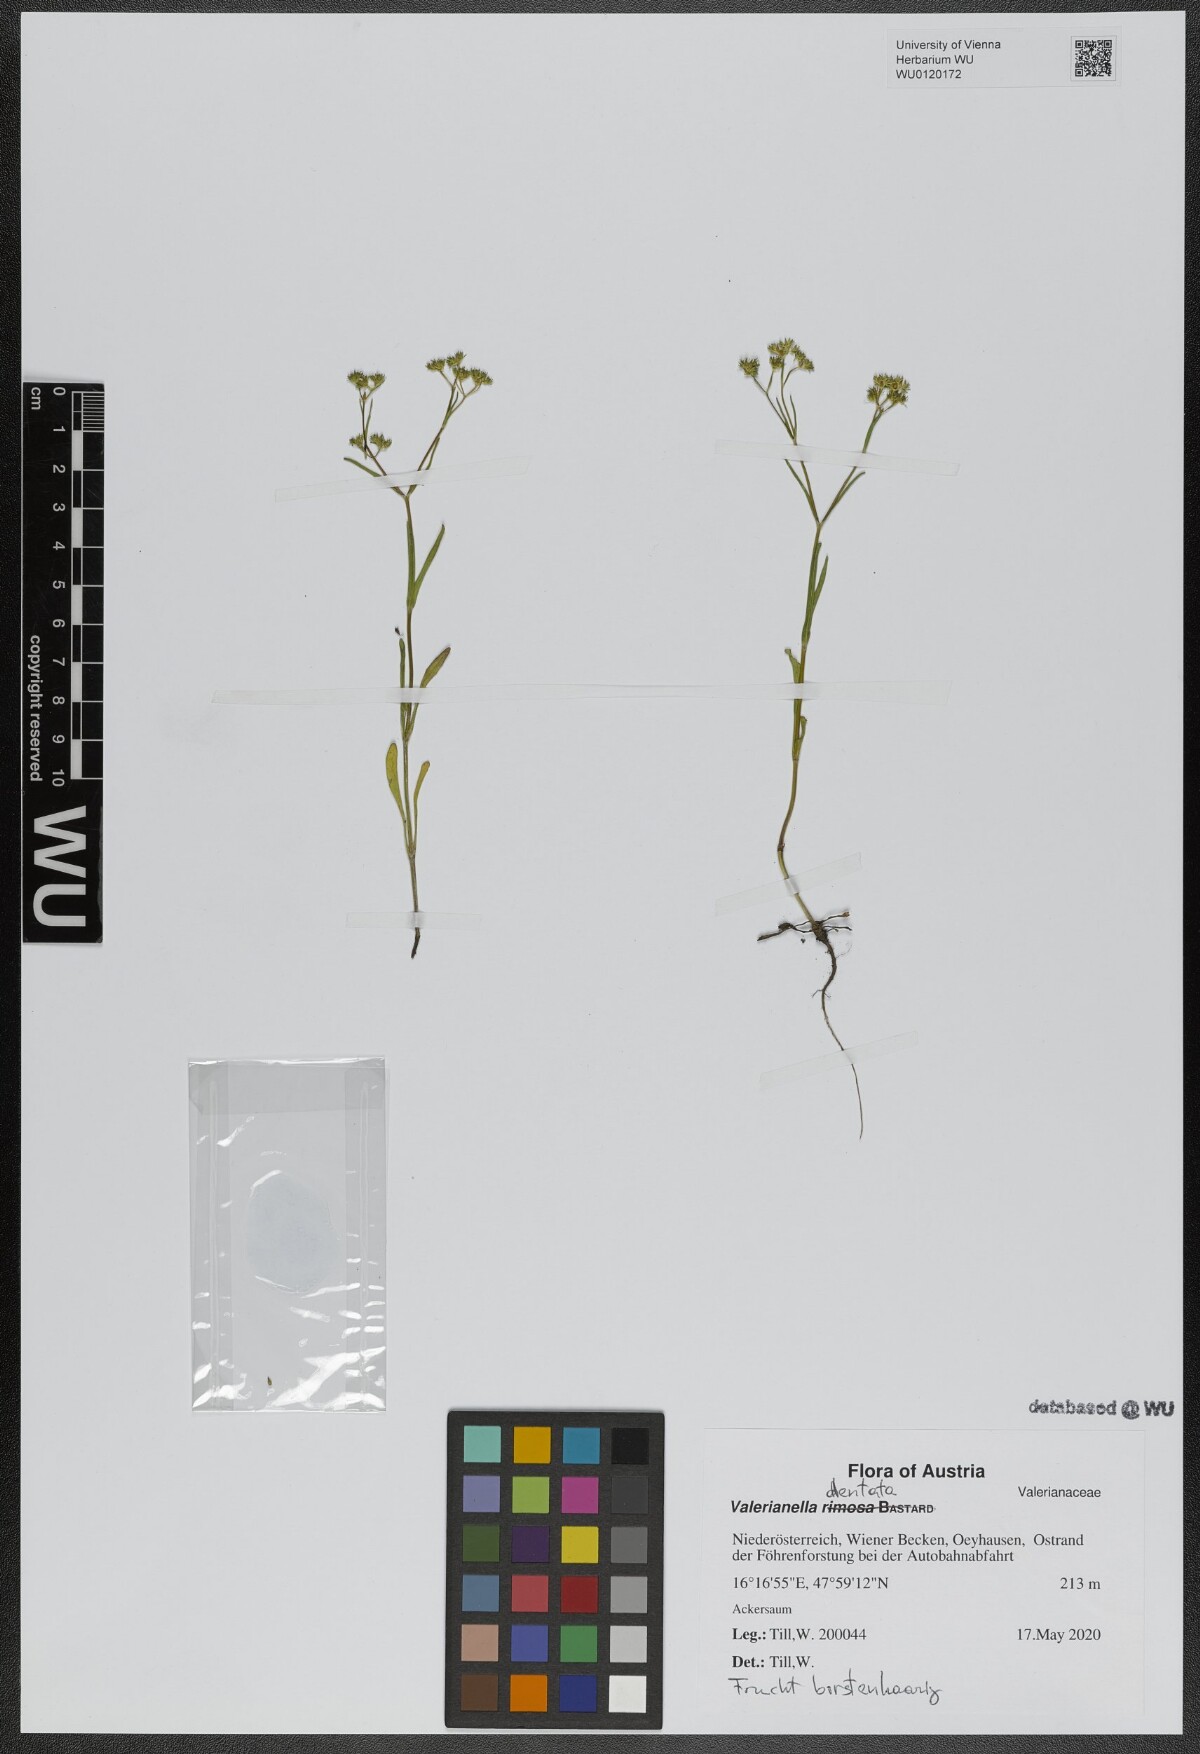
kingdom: Plantae
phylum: Tracheophyta
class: Magnoliopsida
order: Dipsacales
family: Caprifoliaceae
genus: Valerianella
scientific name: Valerianella dentata
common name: Narrow-fruited cornsalad
